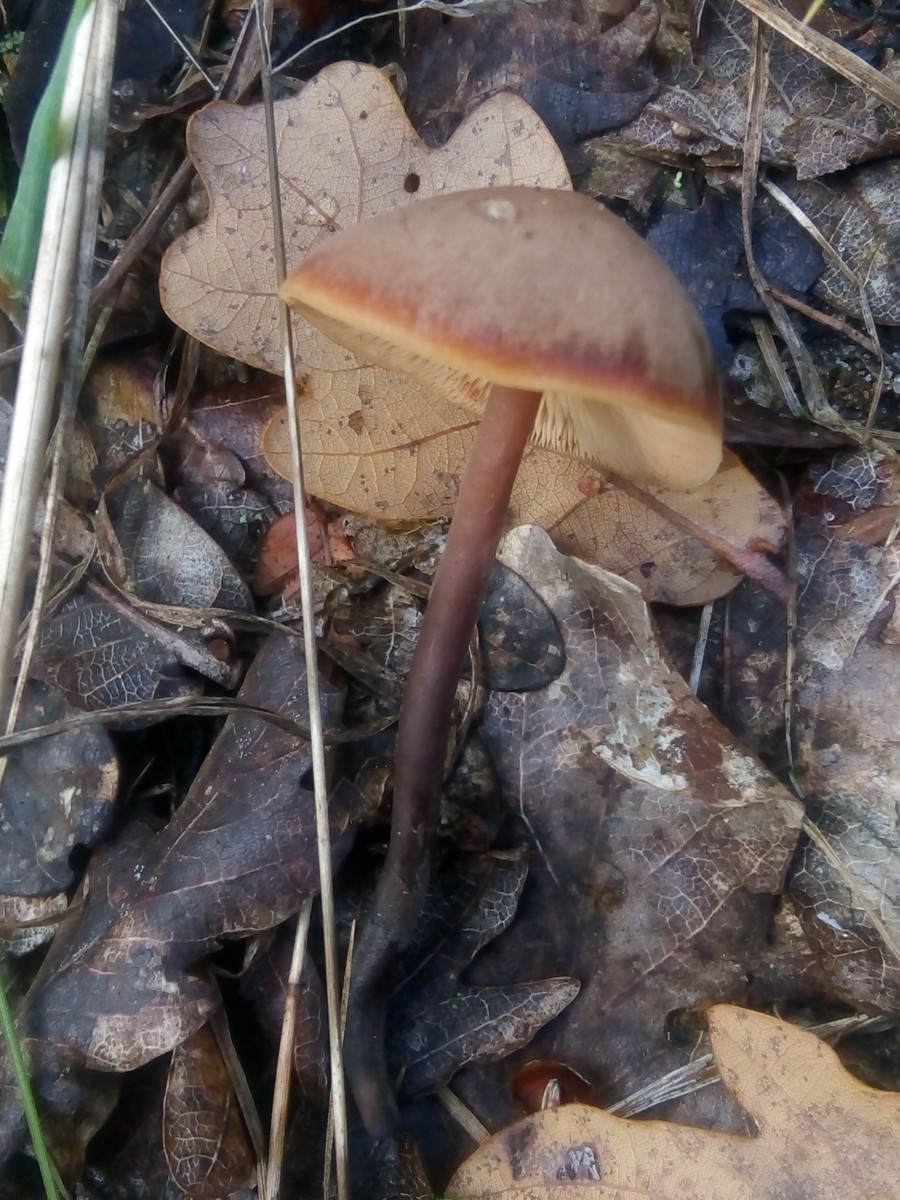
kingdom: Fungi
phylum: Basidiomycota
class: Agaricomycetes
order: Agaricales
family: Macrocystidiaceae
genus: Macrocystidia
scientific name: Macrocystidia cucumis
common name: agurkehat
